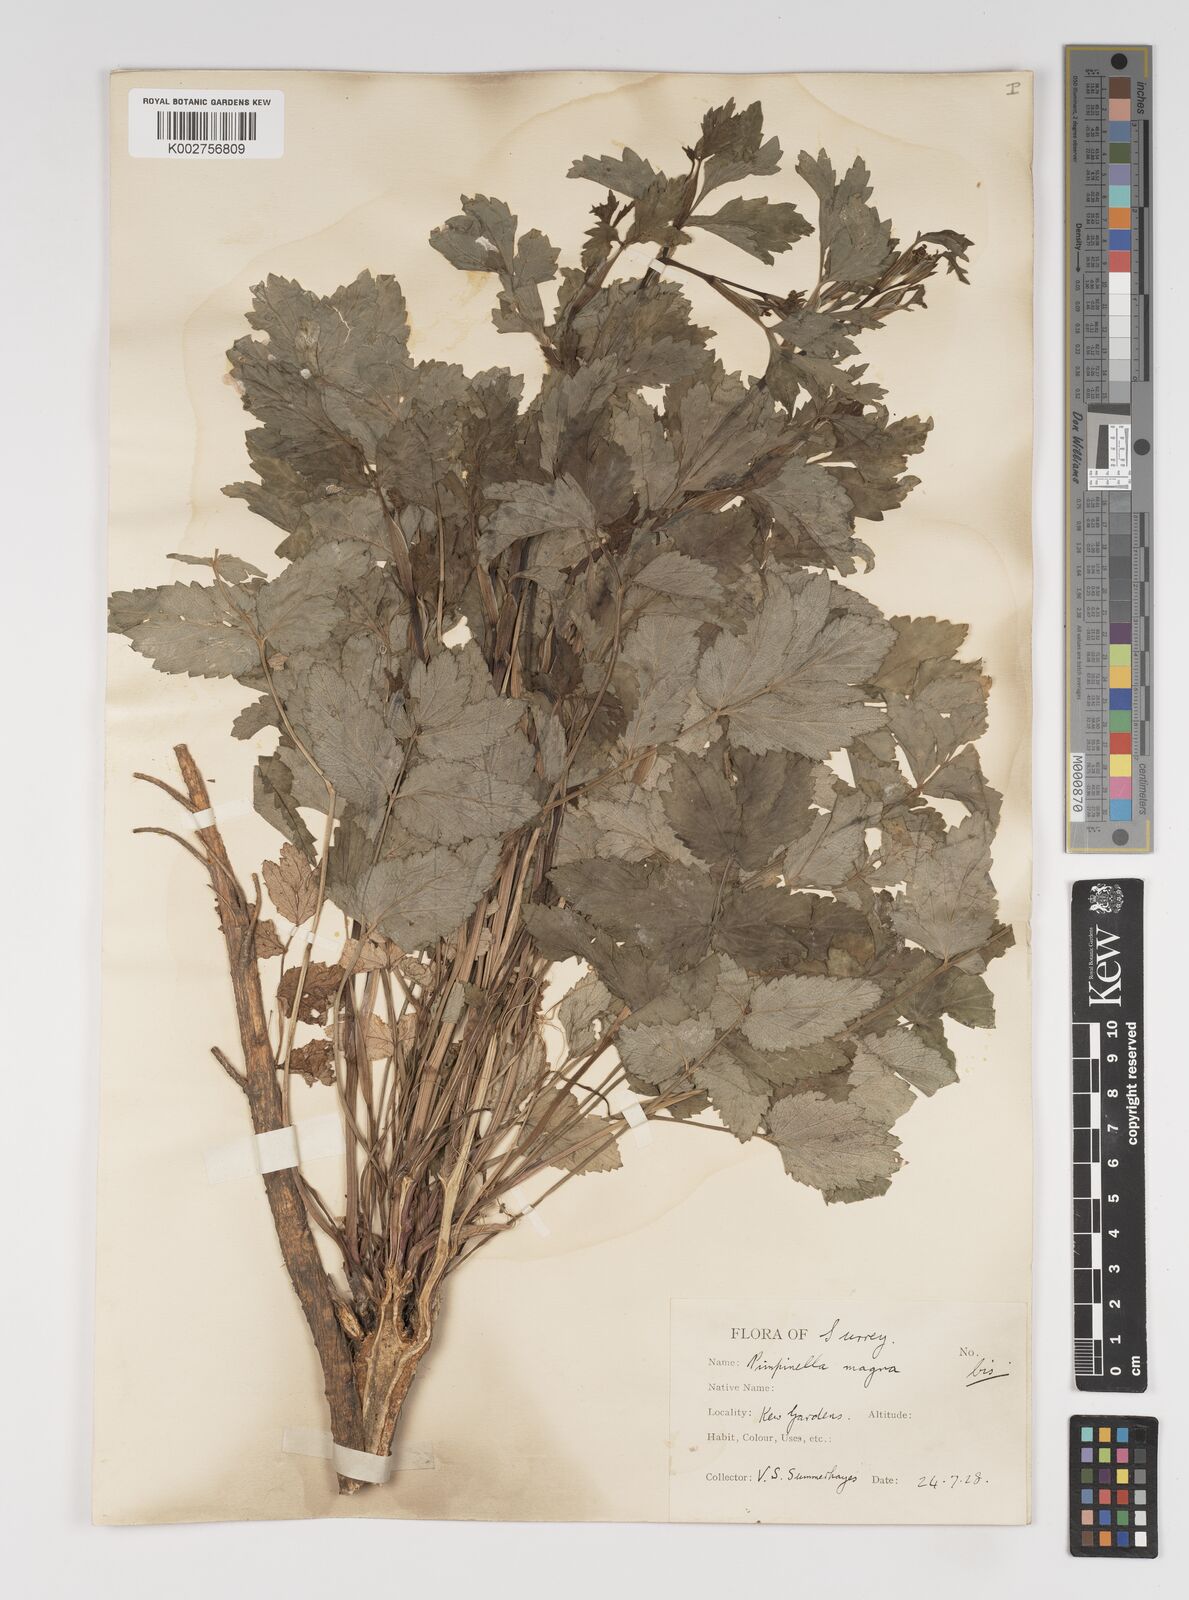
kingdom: Plantae
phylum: Tracheophyta
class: Magnoliopsida
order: Apiales
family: Apiaceae
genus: Pimpinella
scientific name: Pimpinella major
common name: Greater burnet-saxifrage
